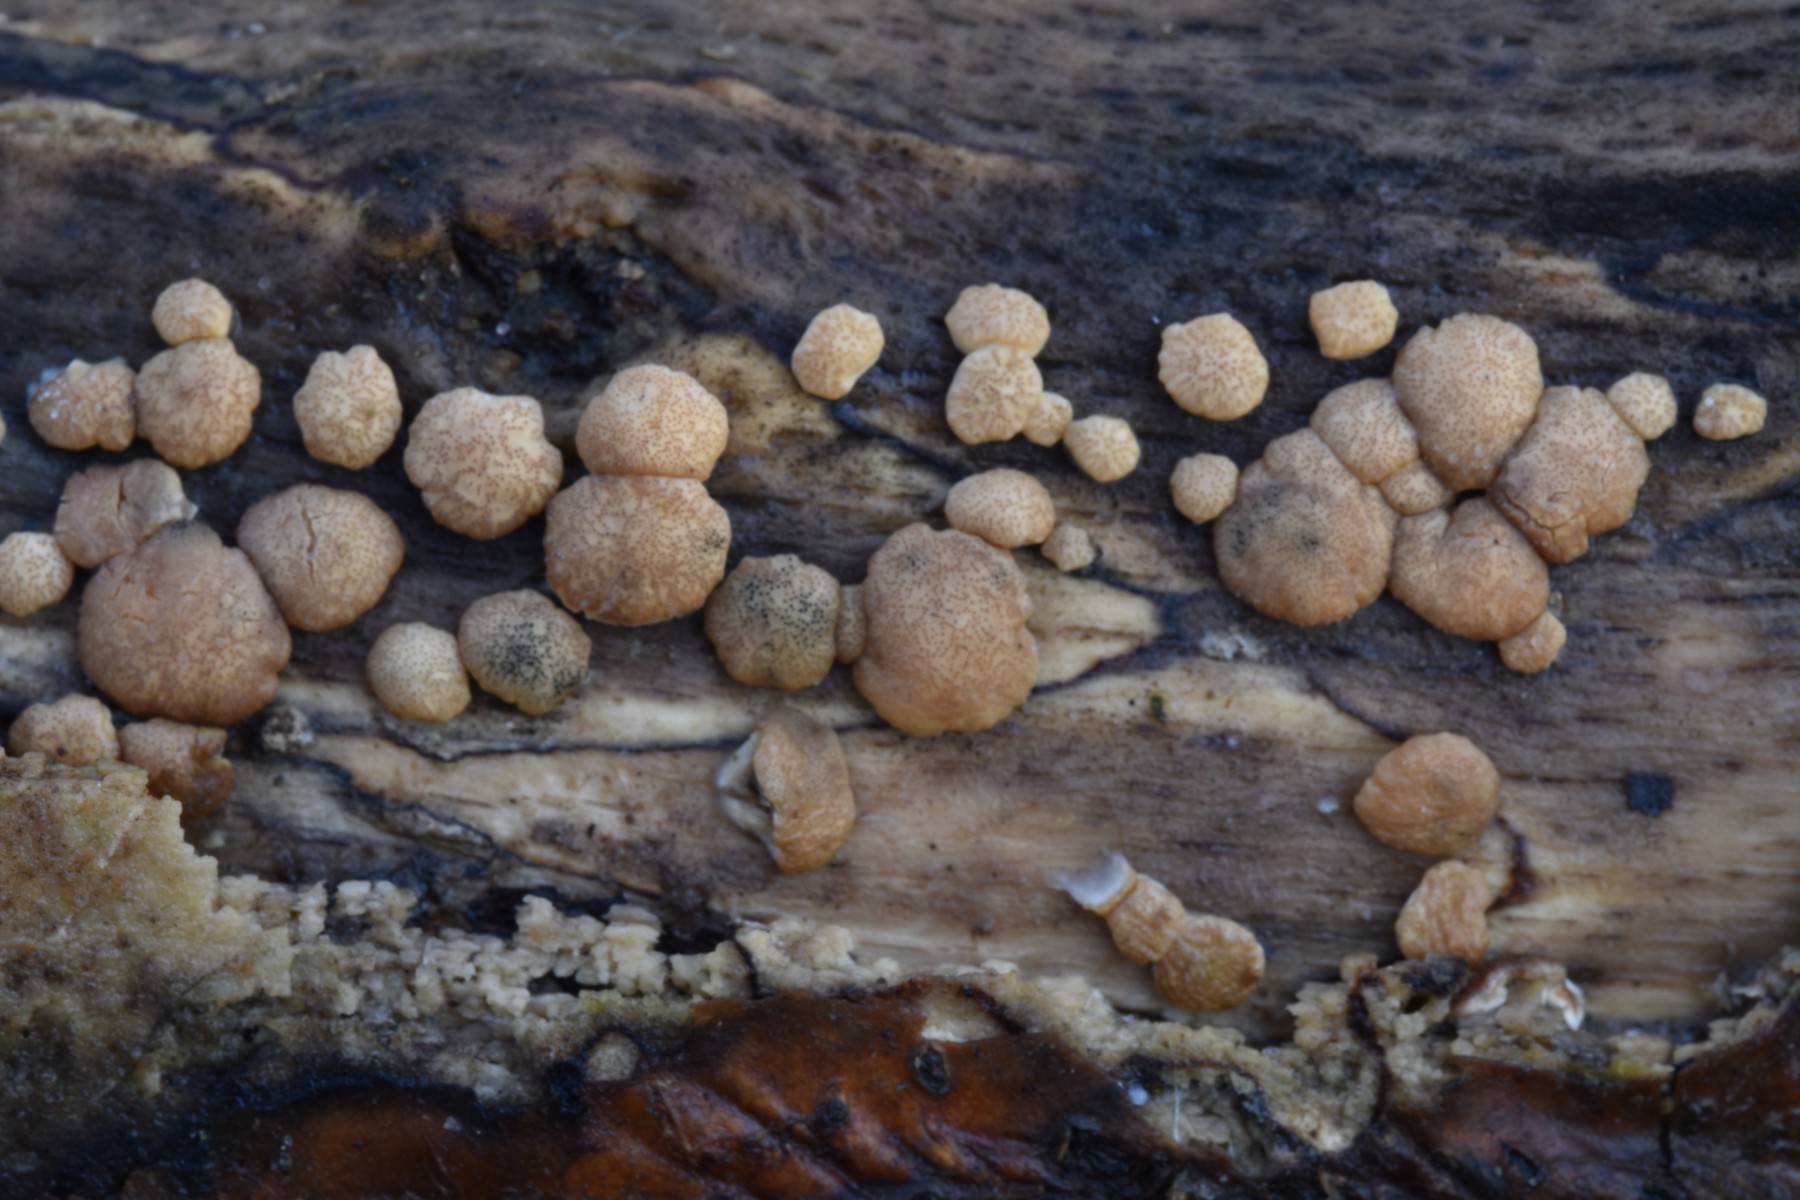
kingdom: Fungi
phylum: Ascomycota
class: Sordariomycetes
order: Hypocreales
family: Hypocreaceae
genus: Trichoderma
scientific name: Trichoderma
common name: kødkerne
